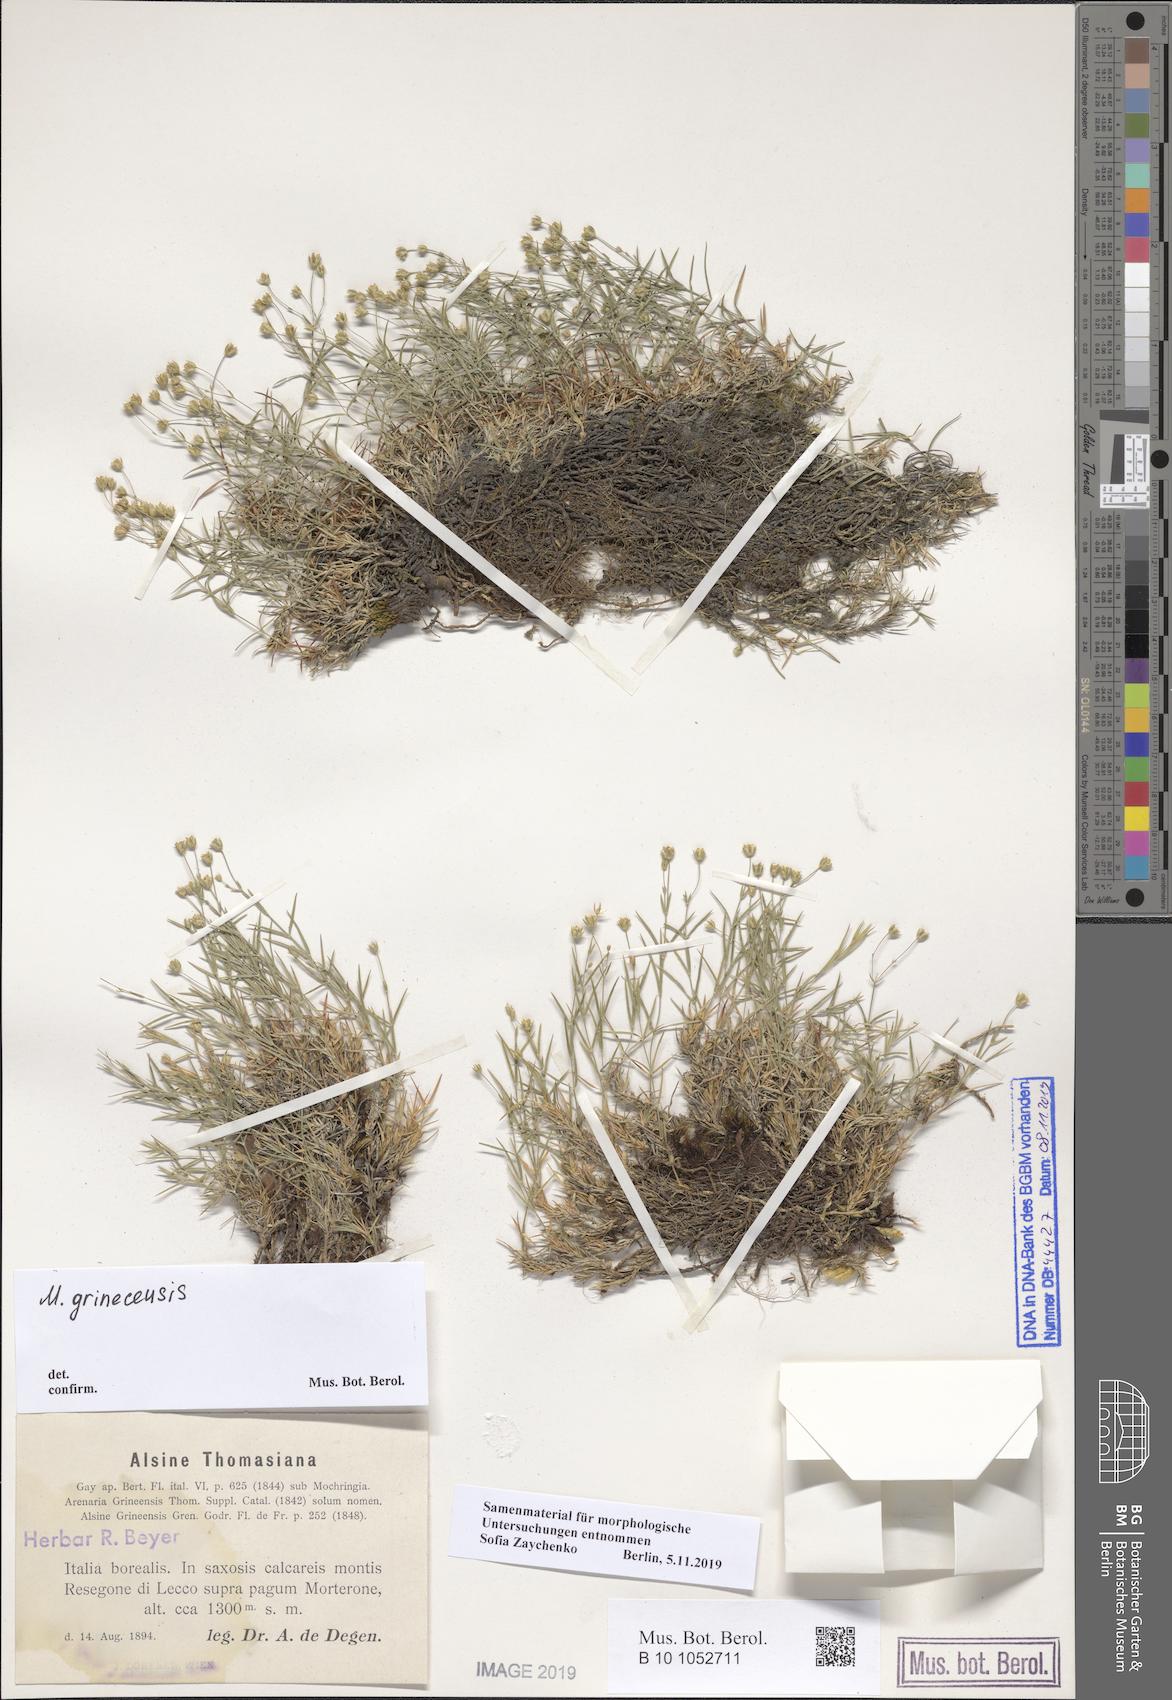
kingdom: Plantae
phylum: Tracheophyta
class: Magnoliopsida
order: Caryophyllales
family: Caryophyllaceae
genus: Facchinia
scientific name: Facchinia grignensis
